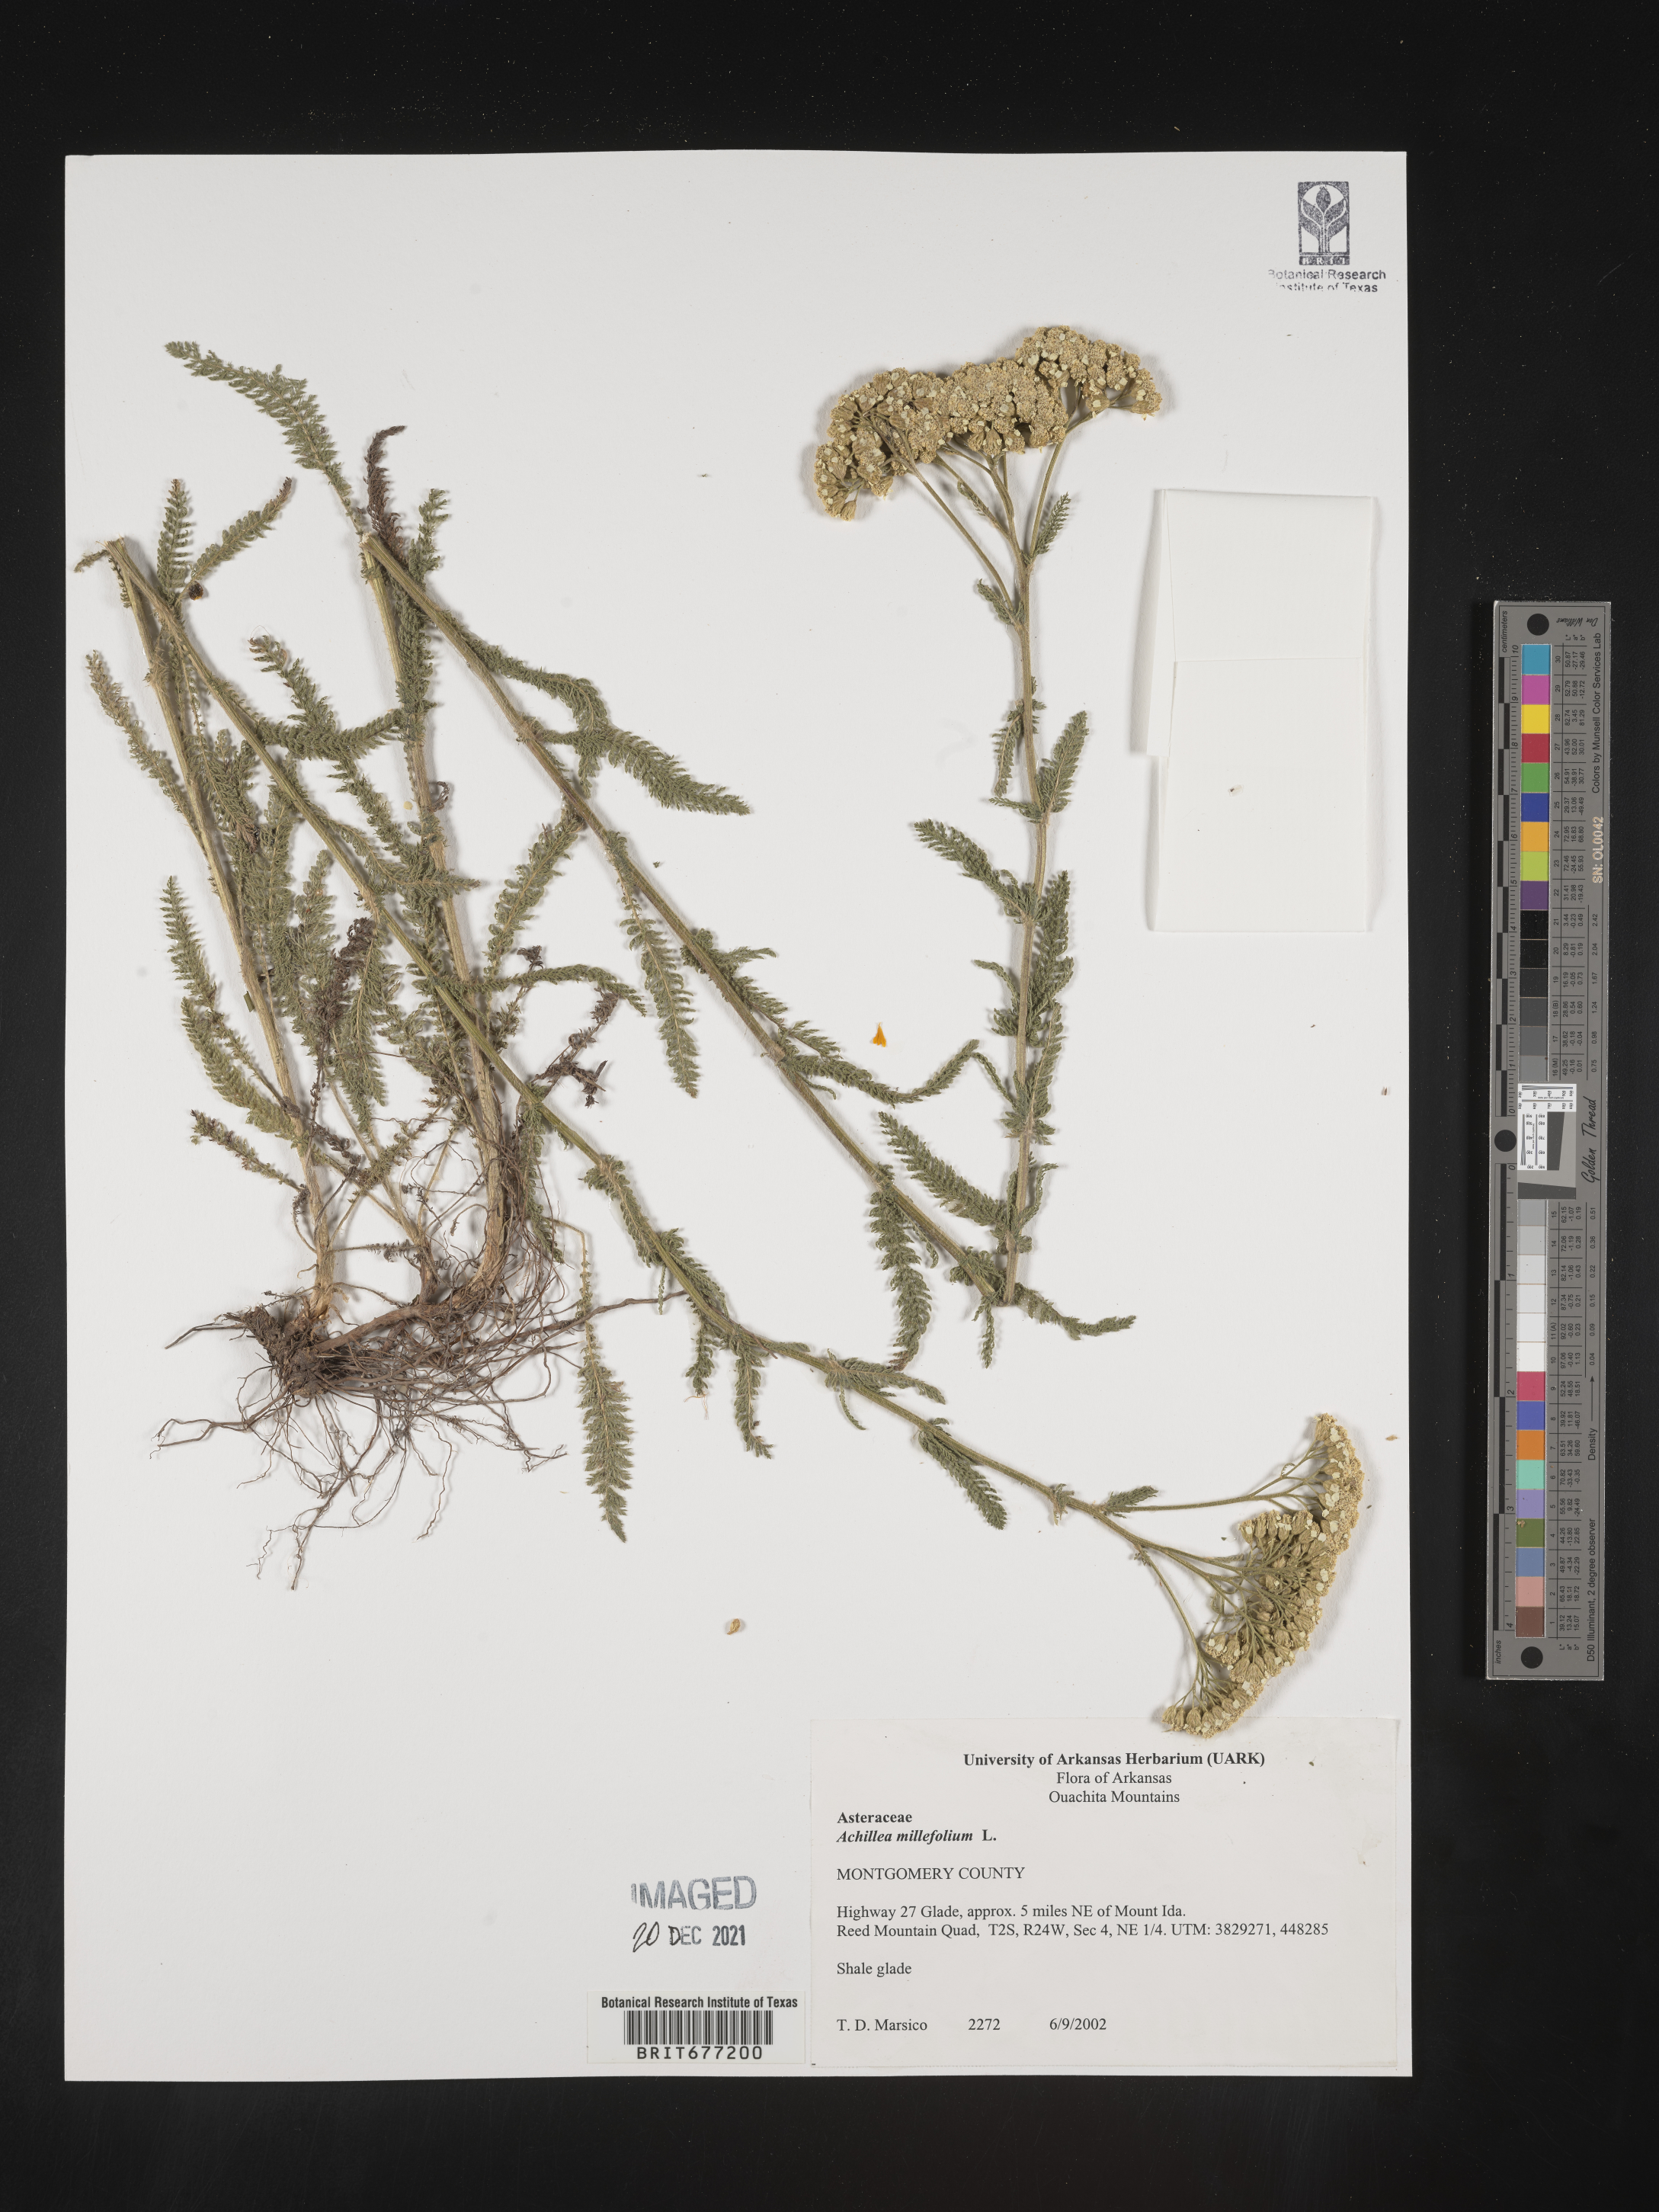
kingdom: Plantae
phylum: Tracheophyta
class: Magnoliopsida
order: Asterales
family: Asteraceae
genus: Achillea
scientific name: Achillea millefolium
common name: Yarrow
